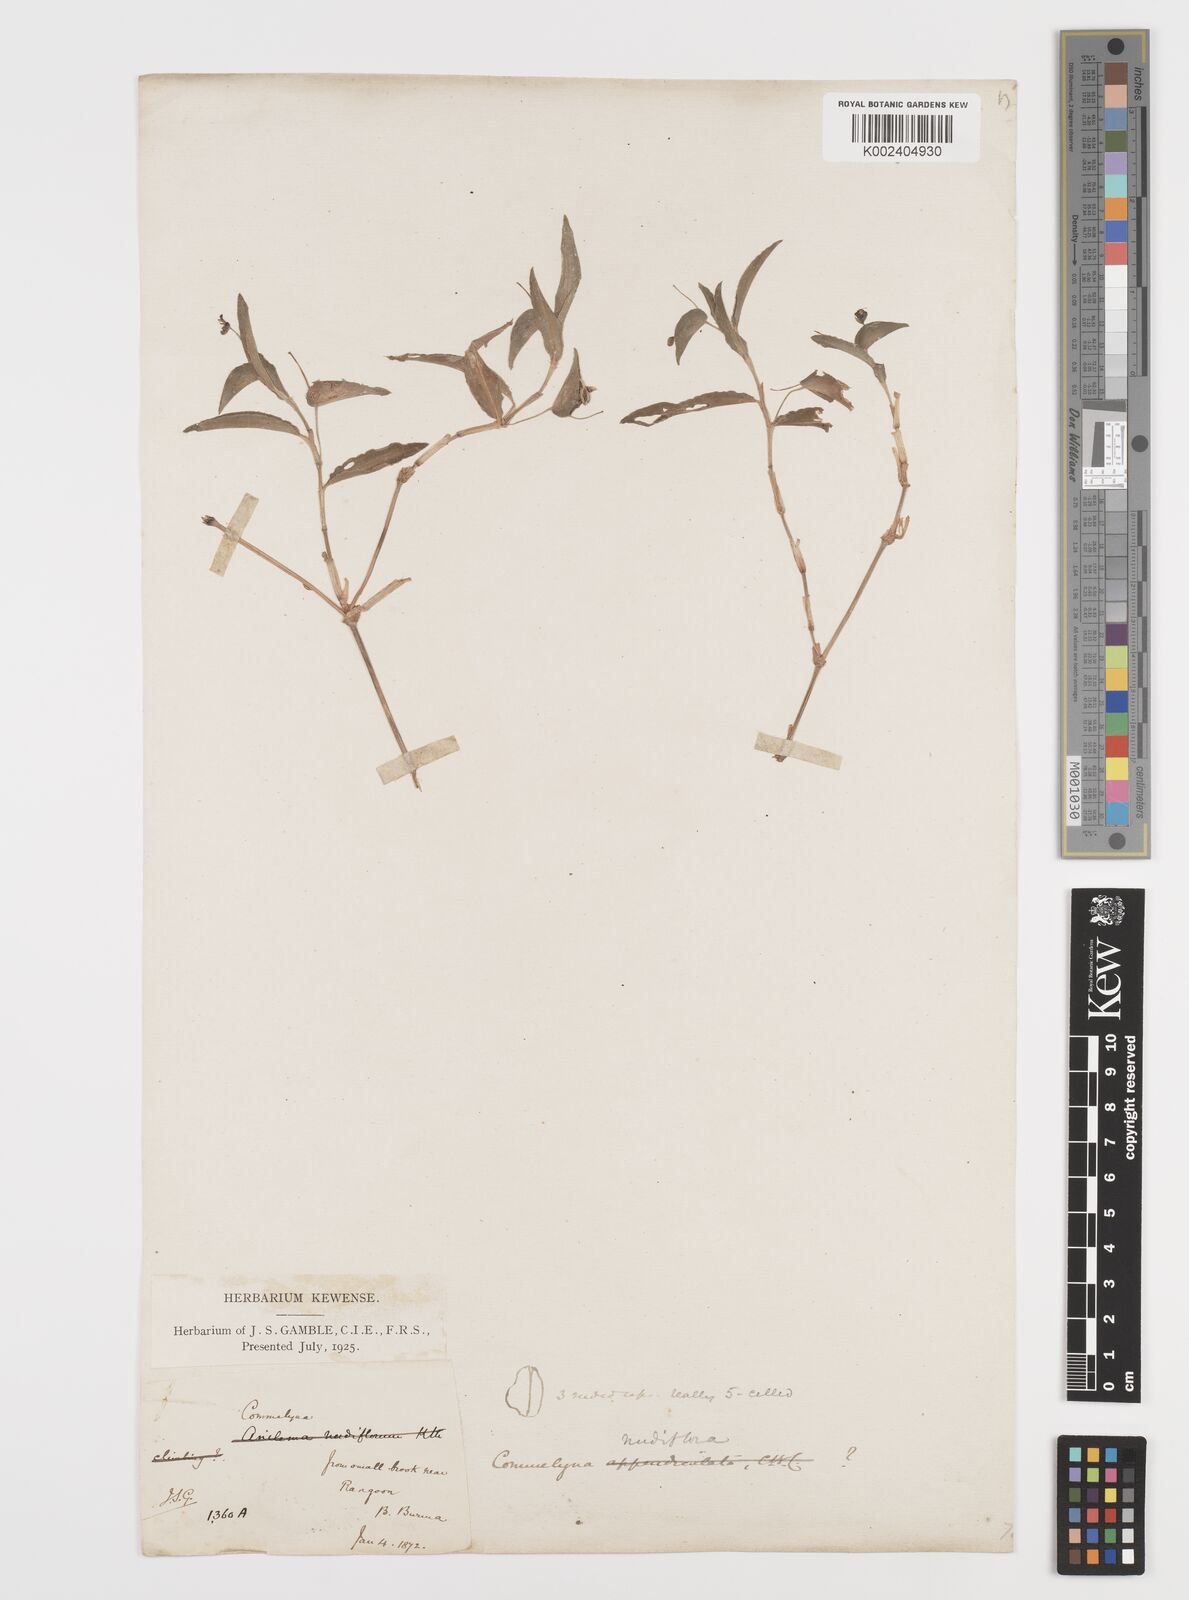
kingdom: Plantae
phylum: Tracheophyta
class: Liliopsida
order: Commelinales
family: Commelinaceae
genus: Murdannia
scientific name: Murdannia nudiflora
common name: Nakedstem dewflower
